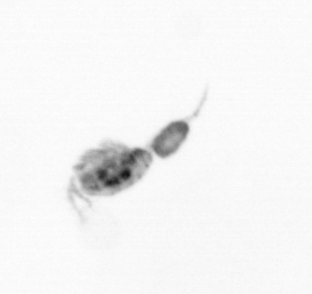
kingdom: Animalia
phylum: Arthropoda
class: Copepoda
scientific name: Copepoda
